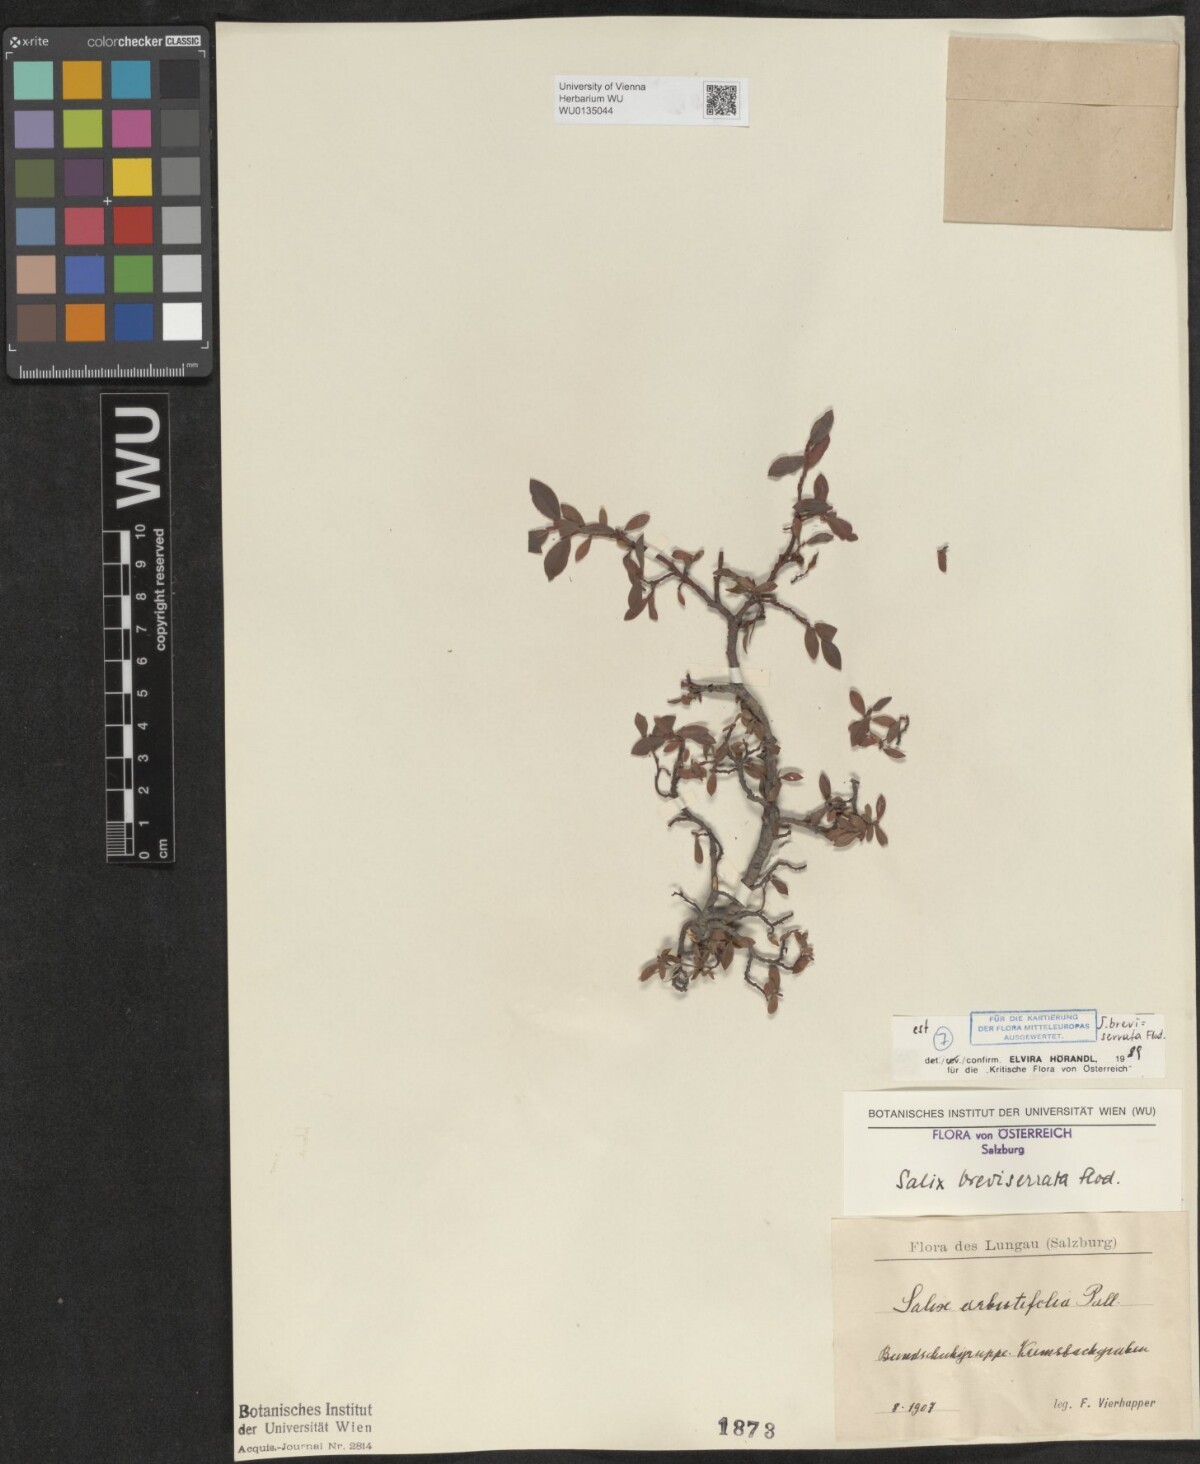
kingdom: Plantae
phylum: Tracheophyta
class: Magnoliopsida
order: Malpighiales
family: Salicaceae
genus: Salix
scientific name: Salix breviserrata
